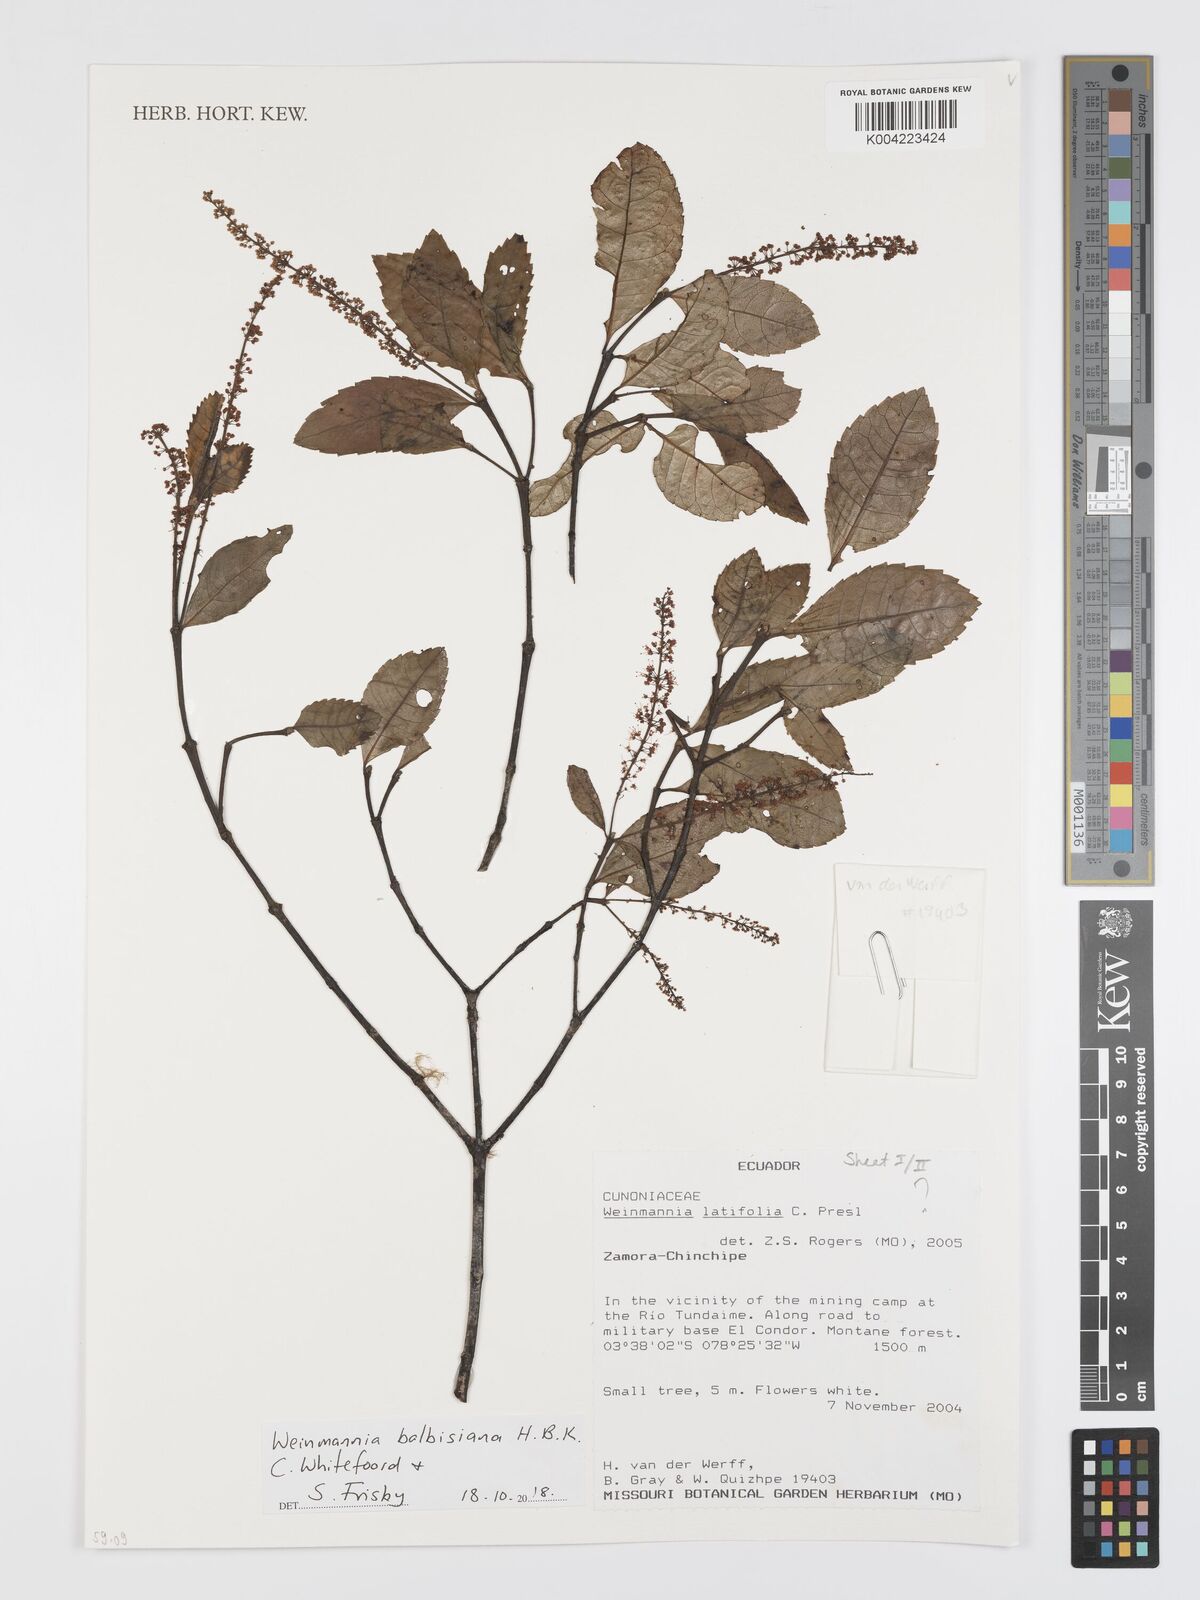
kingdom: Plantae
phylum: Tracheophyta
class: Magnoliopsida
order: Oxalidales
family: Cunoniaceae
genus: Weinmannia
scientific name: Weinmannia balbisana
